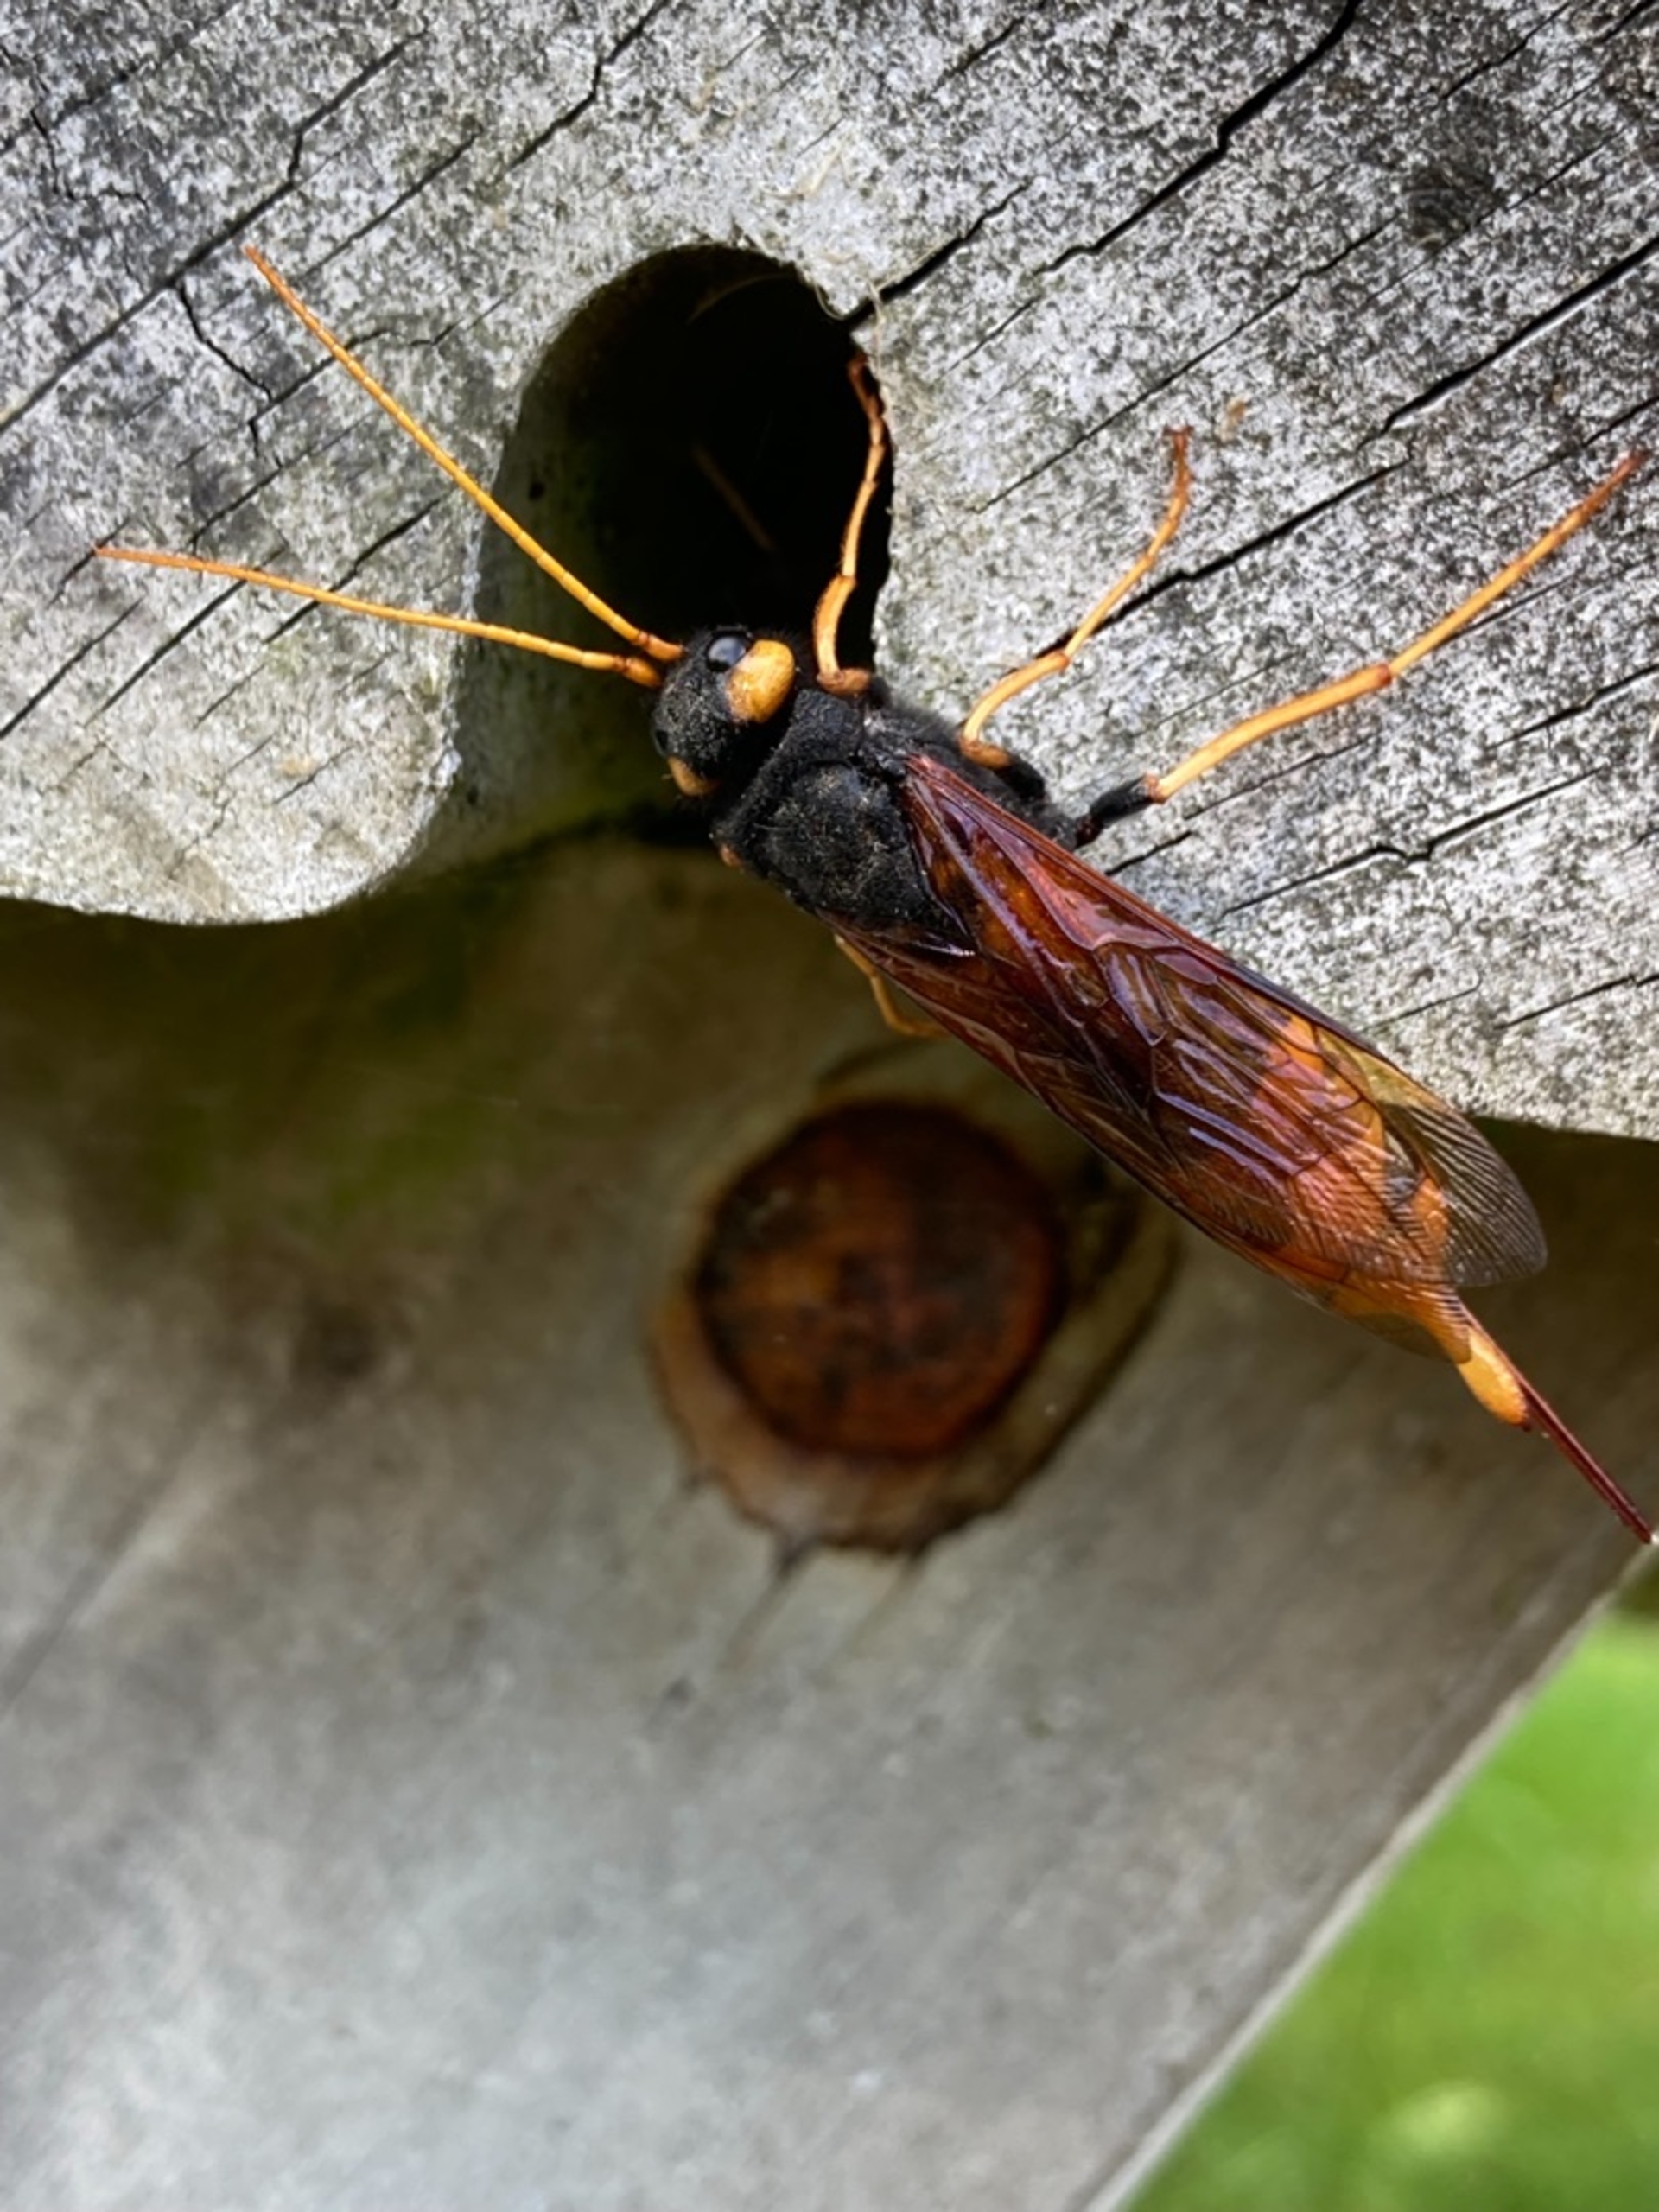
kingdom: Animalia
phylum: Arthropoda
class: Insecta
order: Hymenoptera
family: Siricidae
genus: Urocerus
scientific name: Urocerus gigas
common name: Kæmpetræhveps
